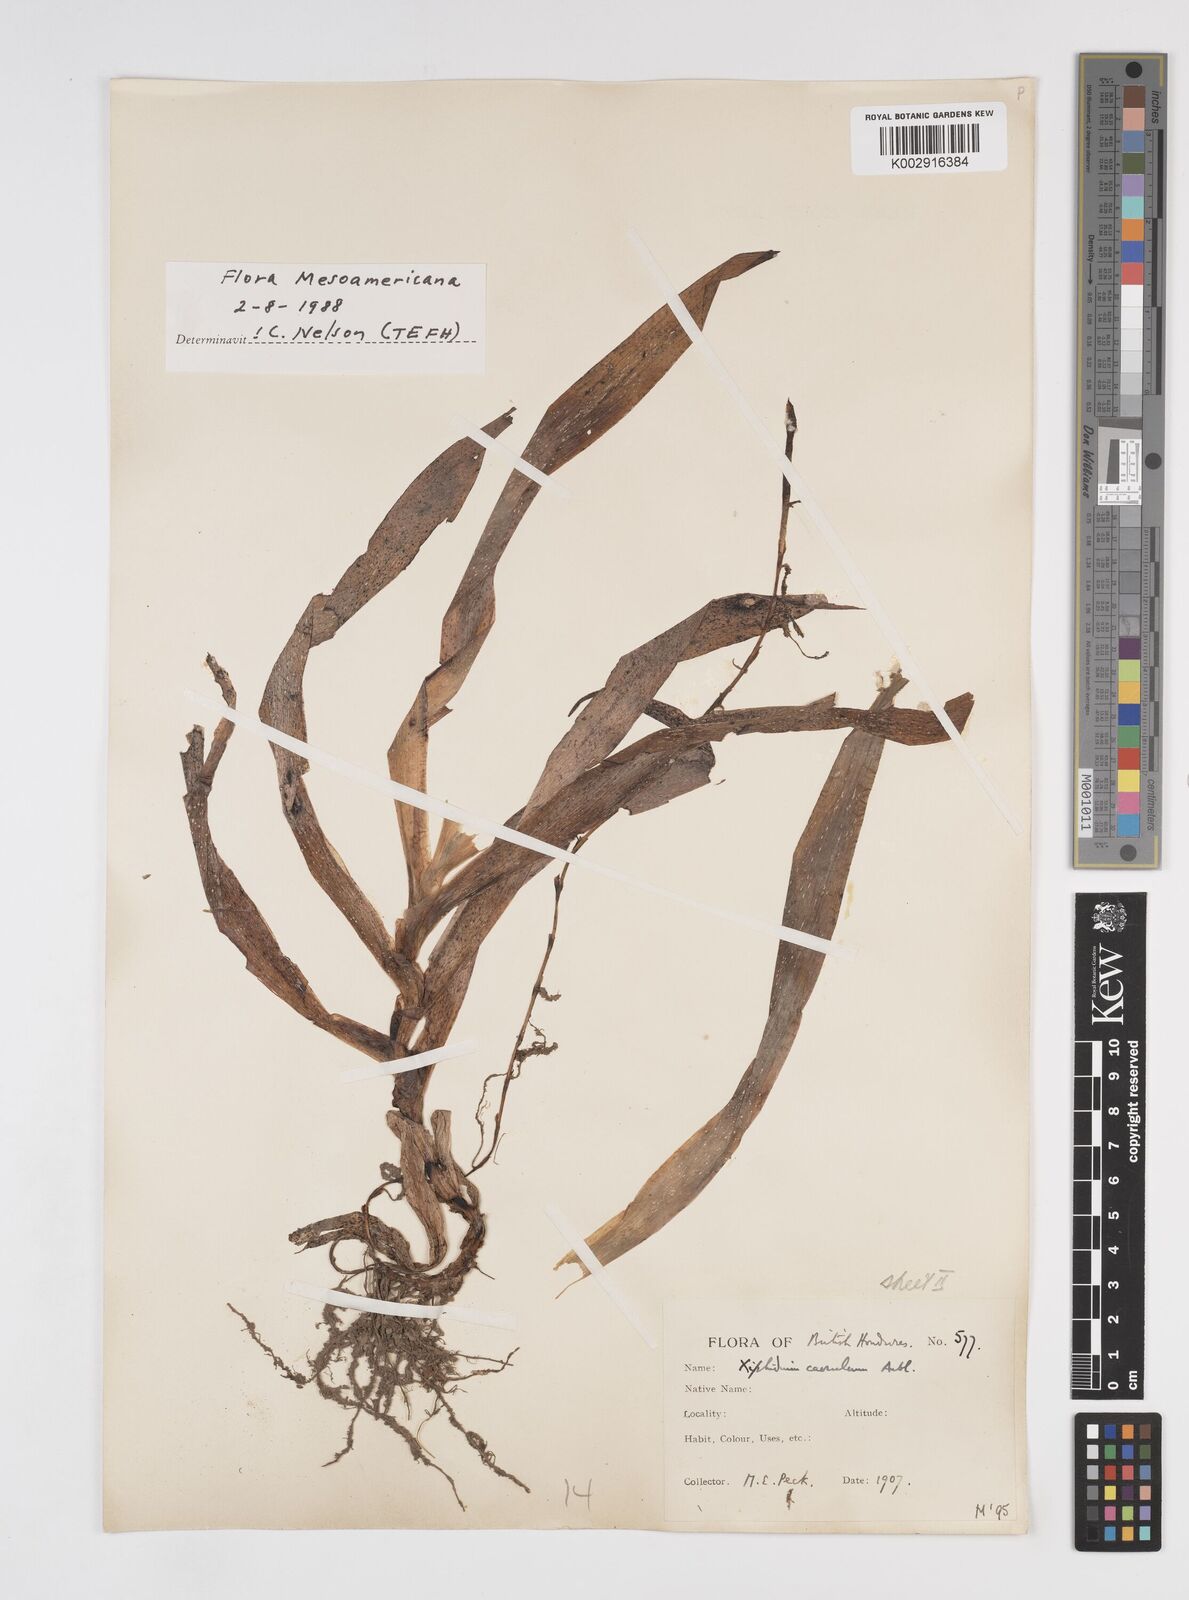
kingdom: Plantae
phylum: Tracheophyta
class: Liliopsida
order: Commelinales
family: Haemodoraceae
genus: Xiphidium
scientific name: Xiphidium caeruleum
